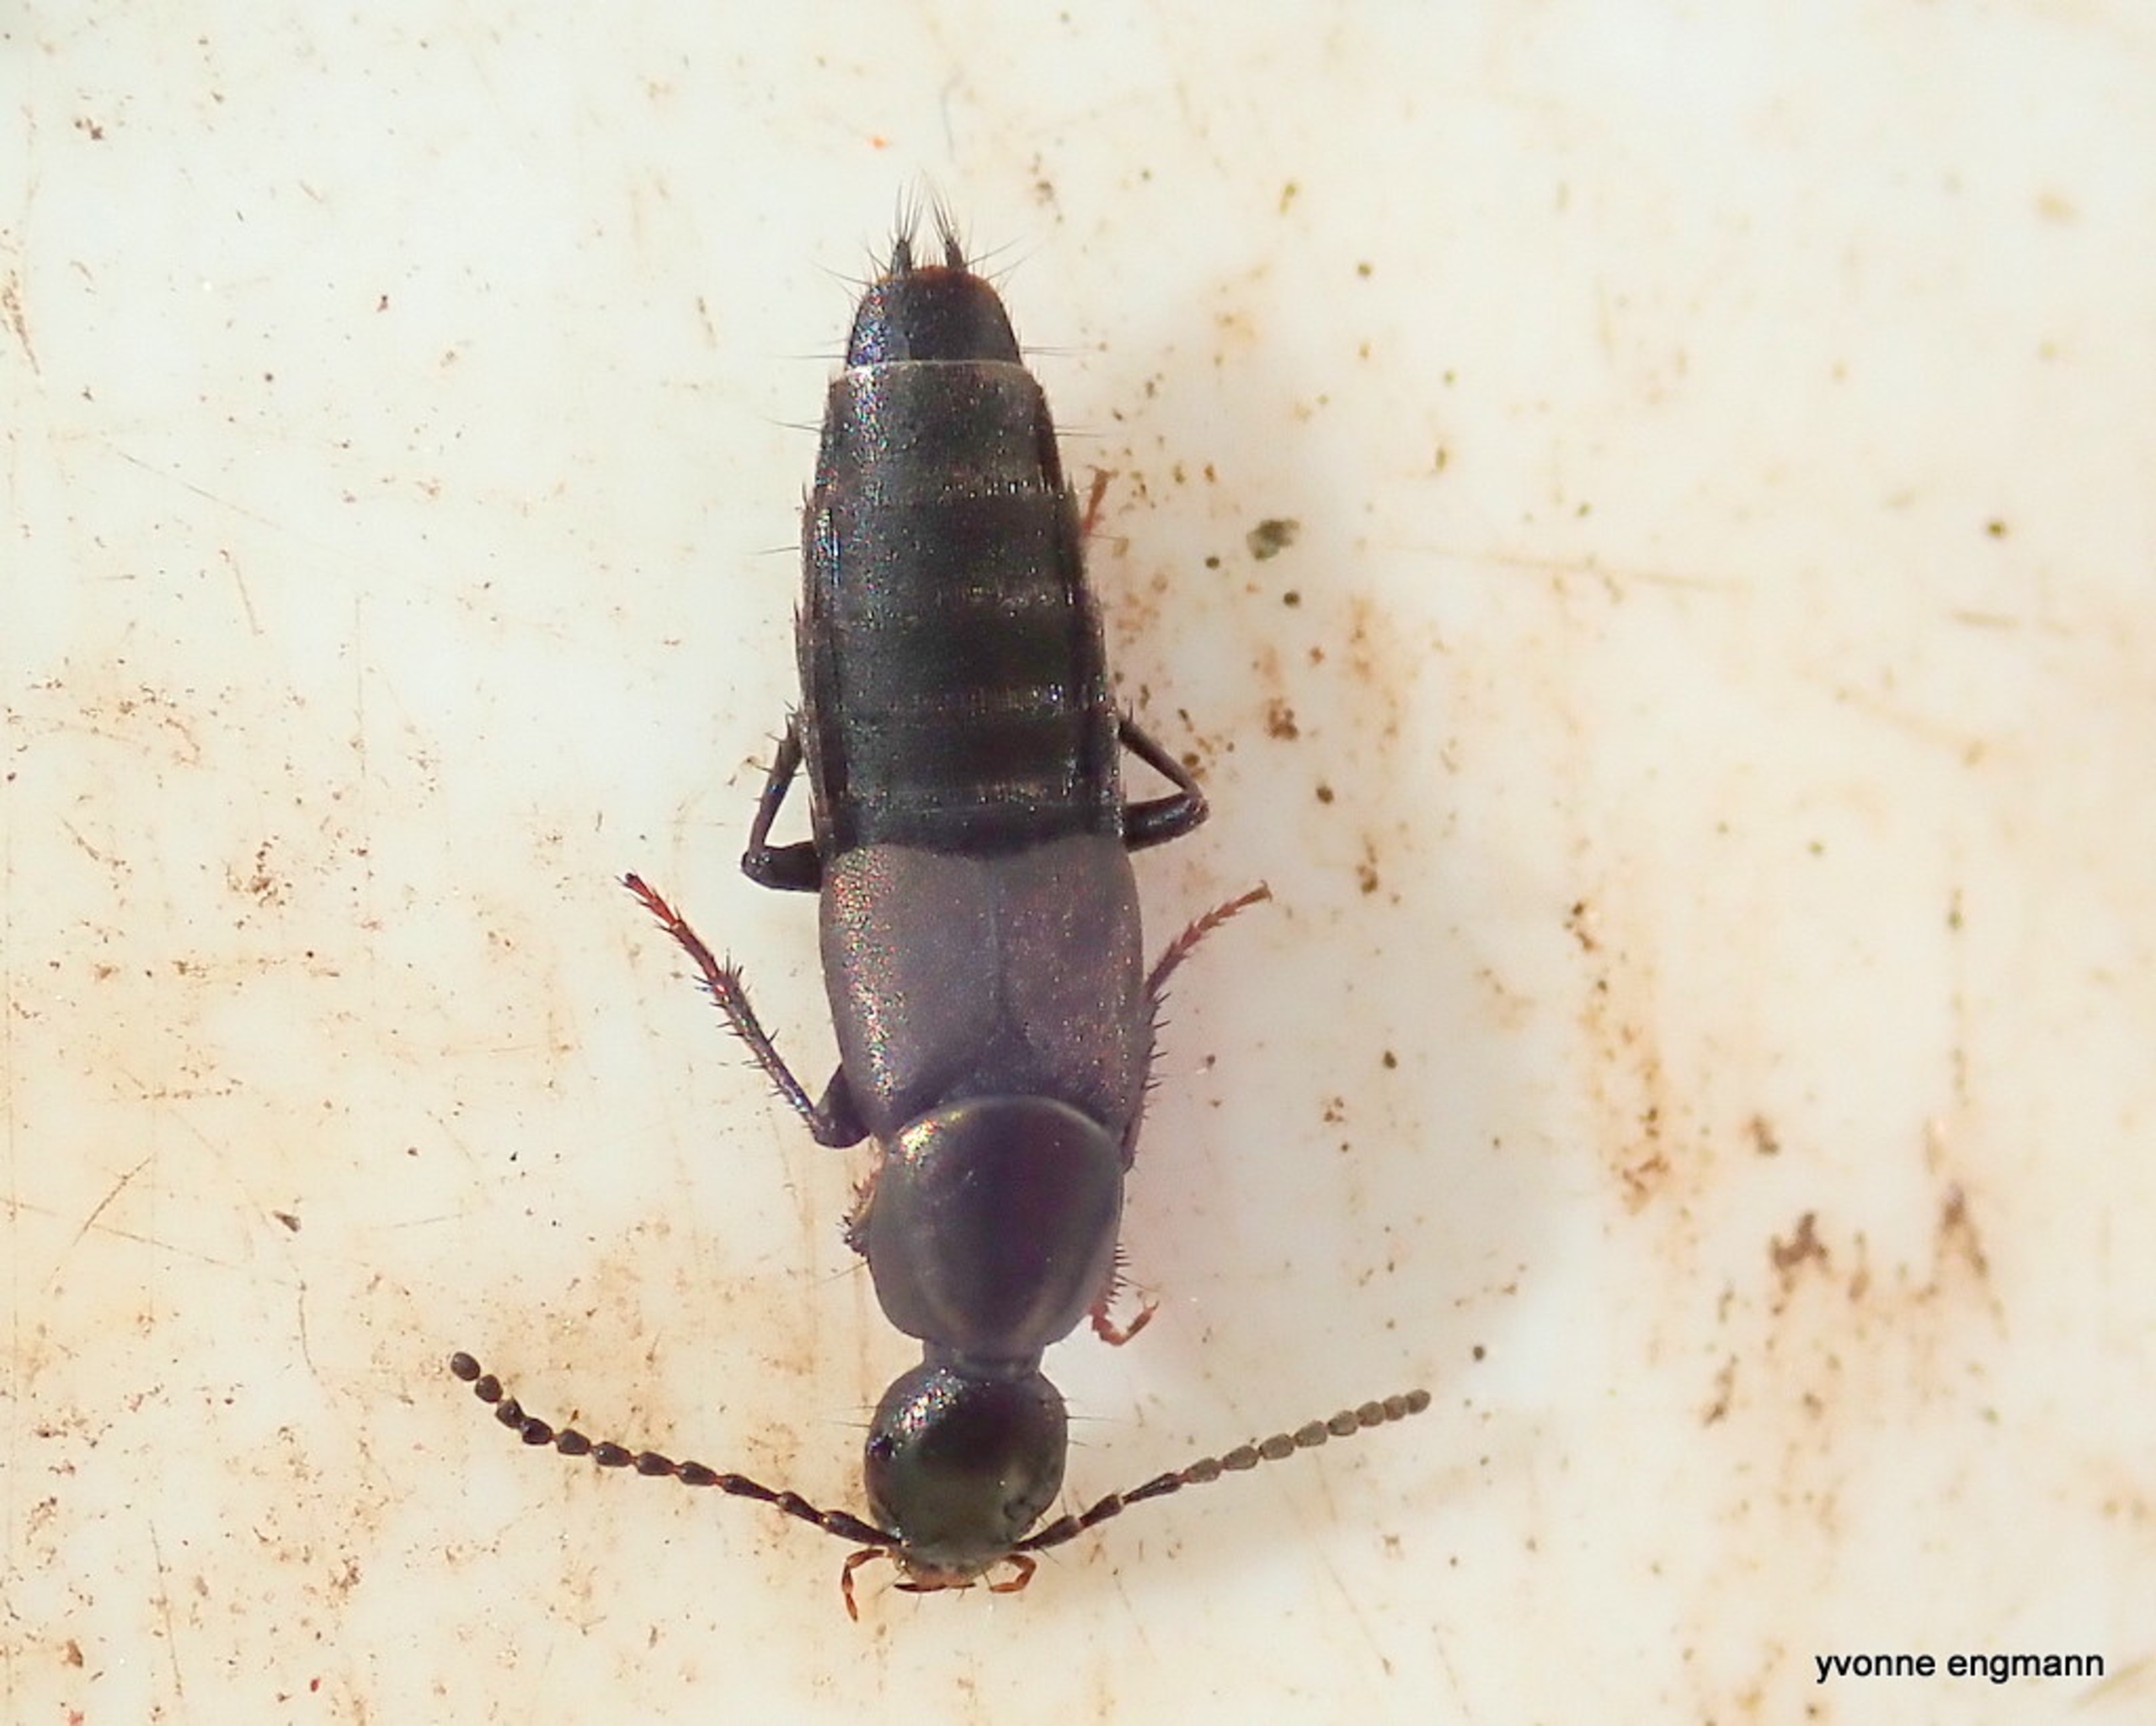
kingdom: Animalia
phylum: Arthropoda
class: Insecta
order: Coleoptera
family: Staphylinidae
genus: Philonthus
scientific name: Philonthus decorus
